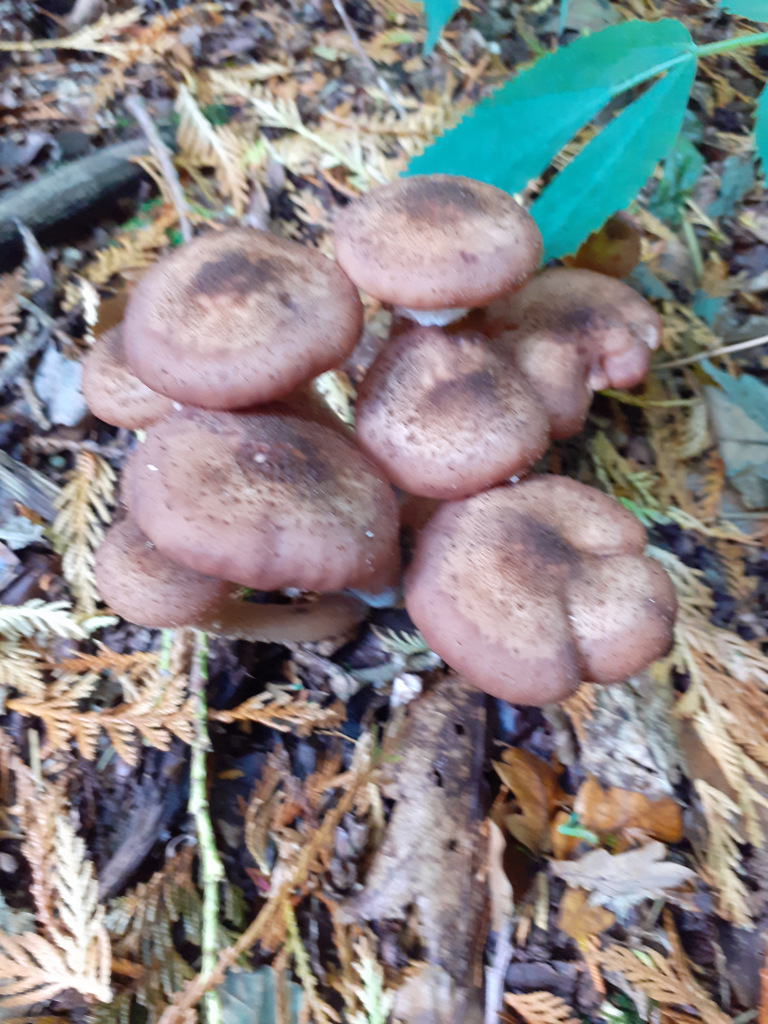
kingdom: Fungi
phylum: Basidiomycota
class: Agaricomycetes
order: Agaricales
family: Physalacriaceae
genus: Armillaria
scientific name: Armillaria ostoyae
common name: mørk honningsvamp
